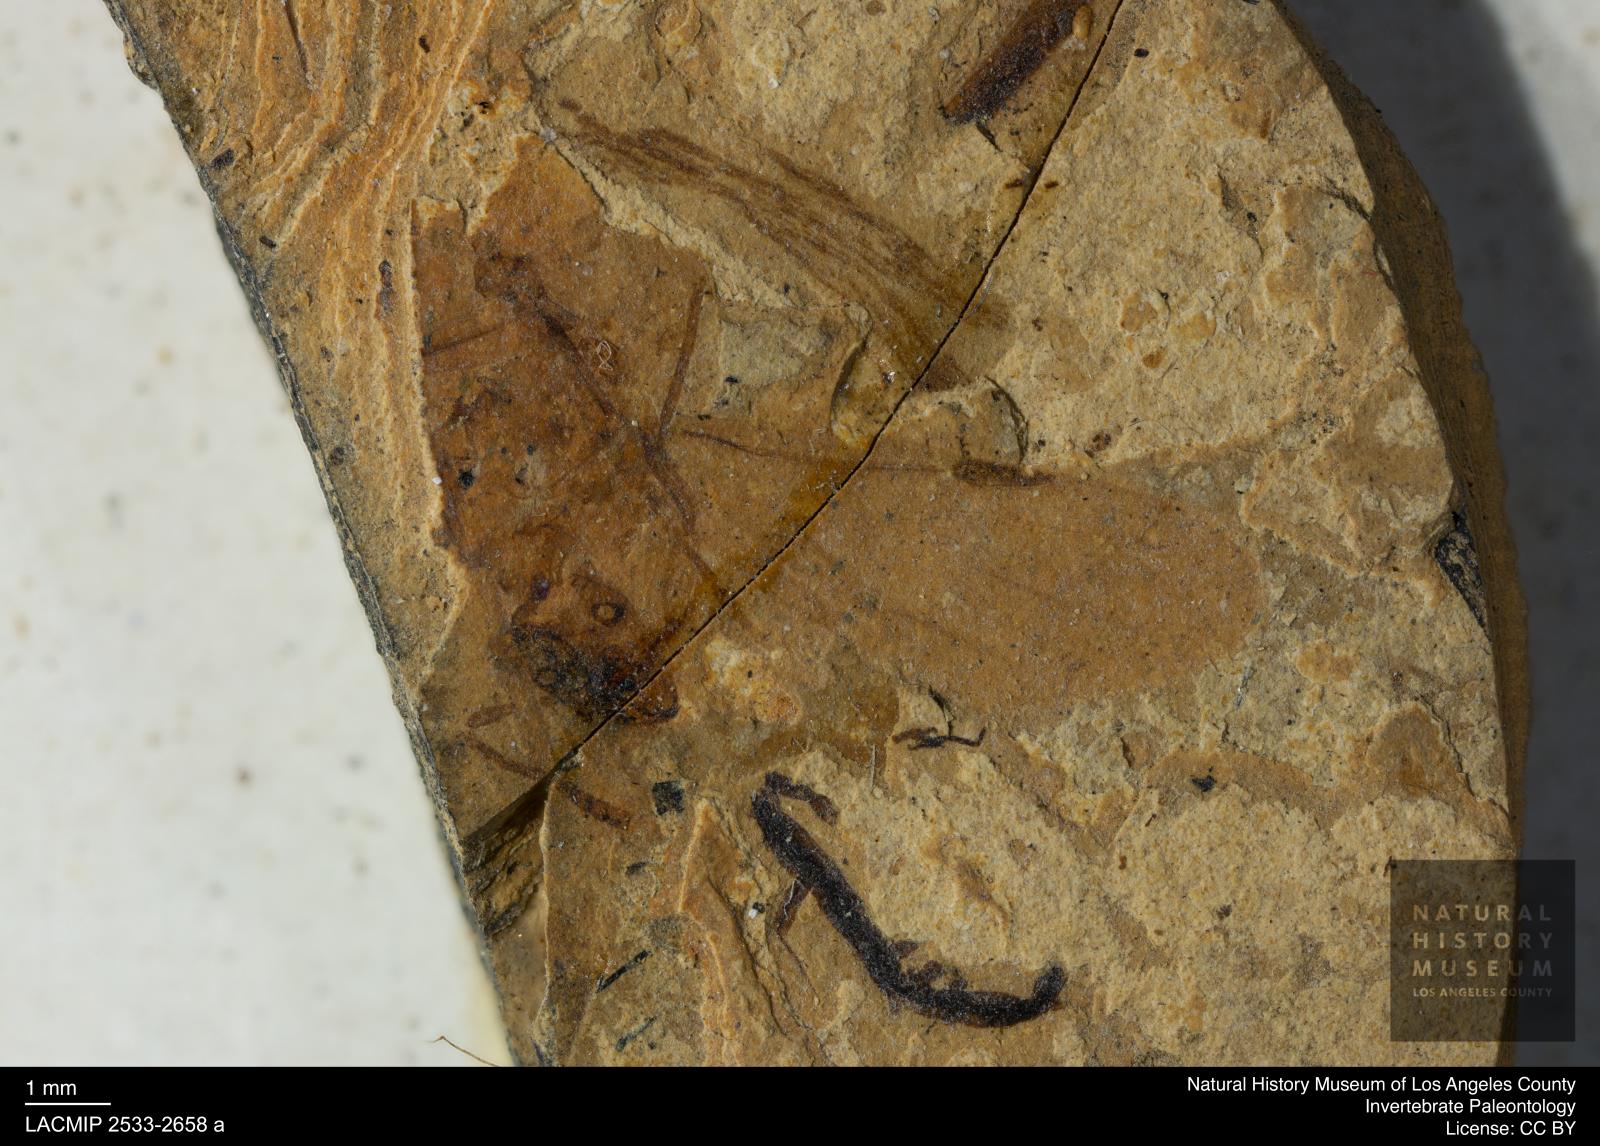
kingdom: Animalia
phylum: Arthropoda
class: Insecta
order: Hymenoptera
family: Formicidae
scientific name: Formicidae
